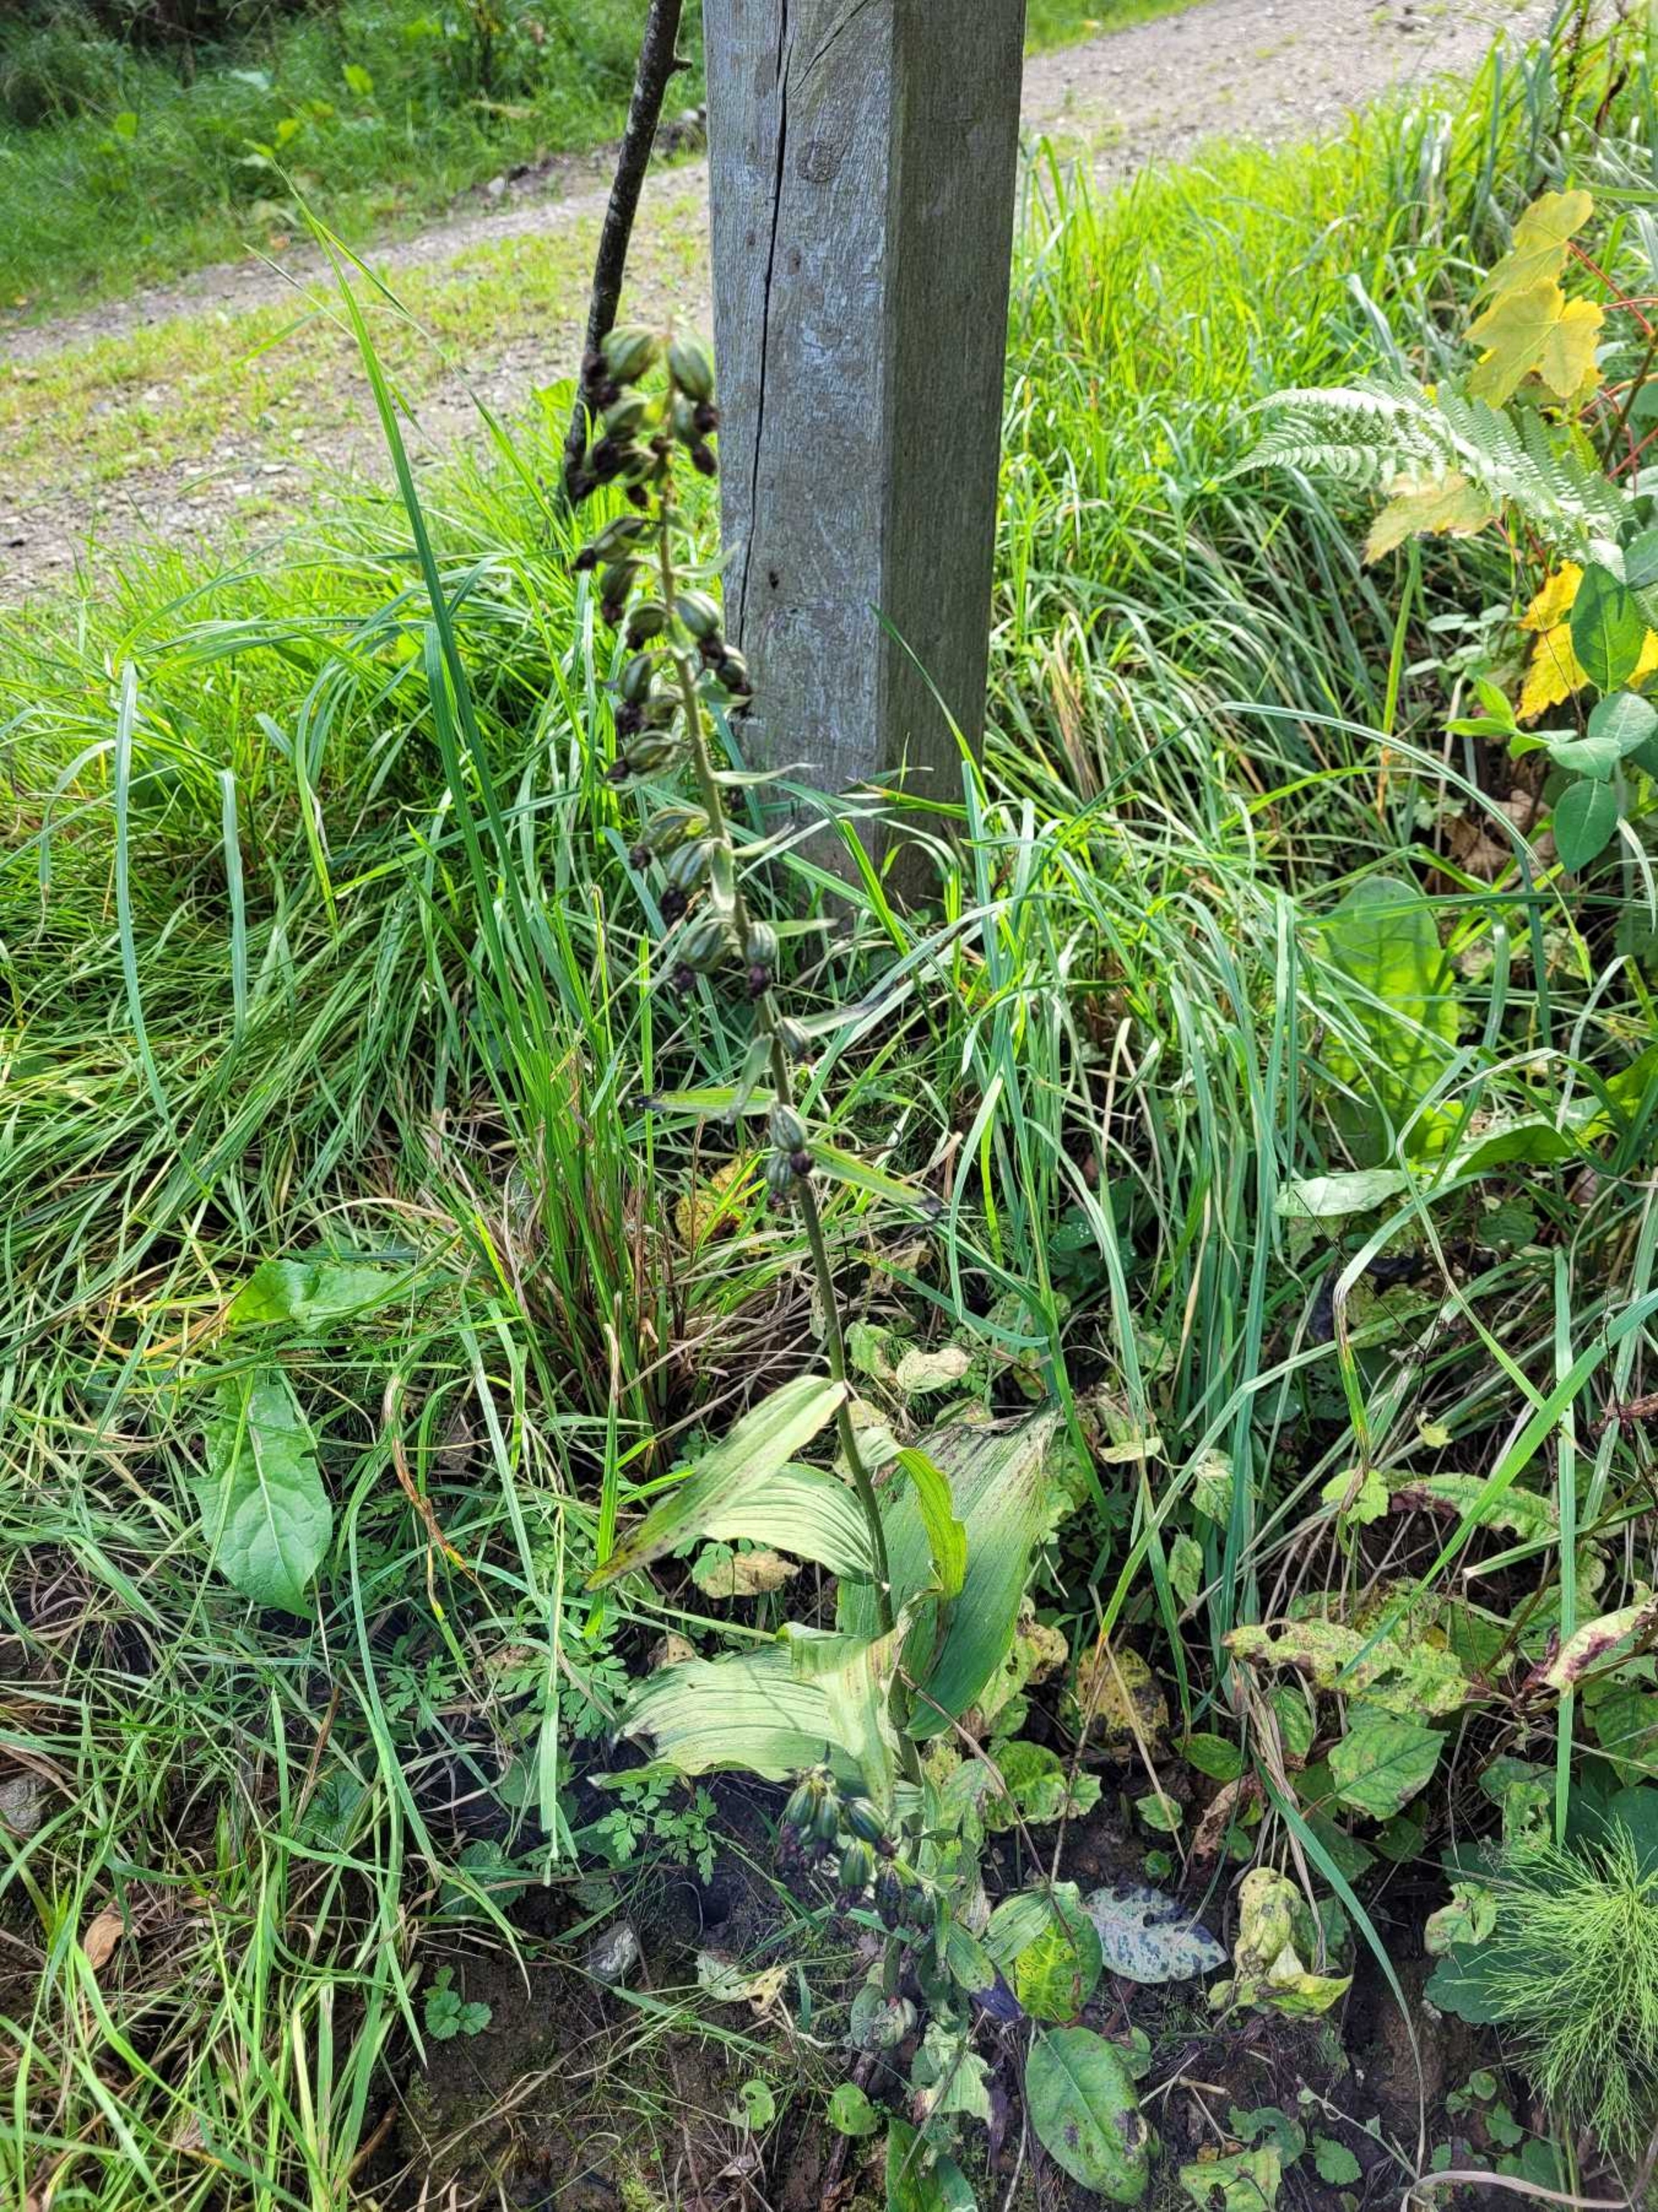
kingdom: Plantae
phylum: Tracheophyta
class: Liliopsida
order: Asparagales
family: Orchidaceae
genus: Epipactis
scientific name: Epipactis helleborine
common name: Skov-hullæbe
